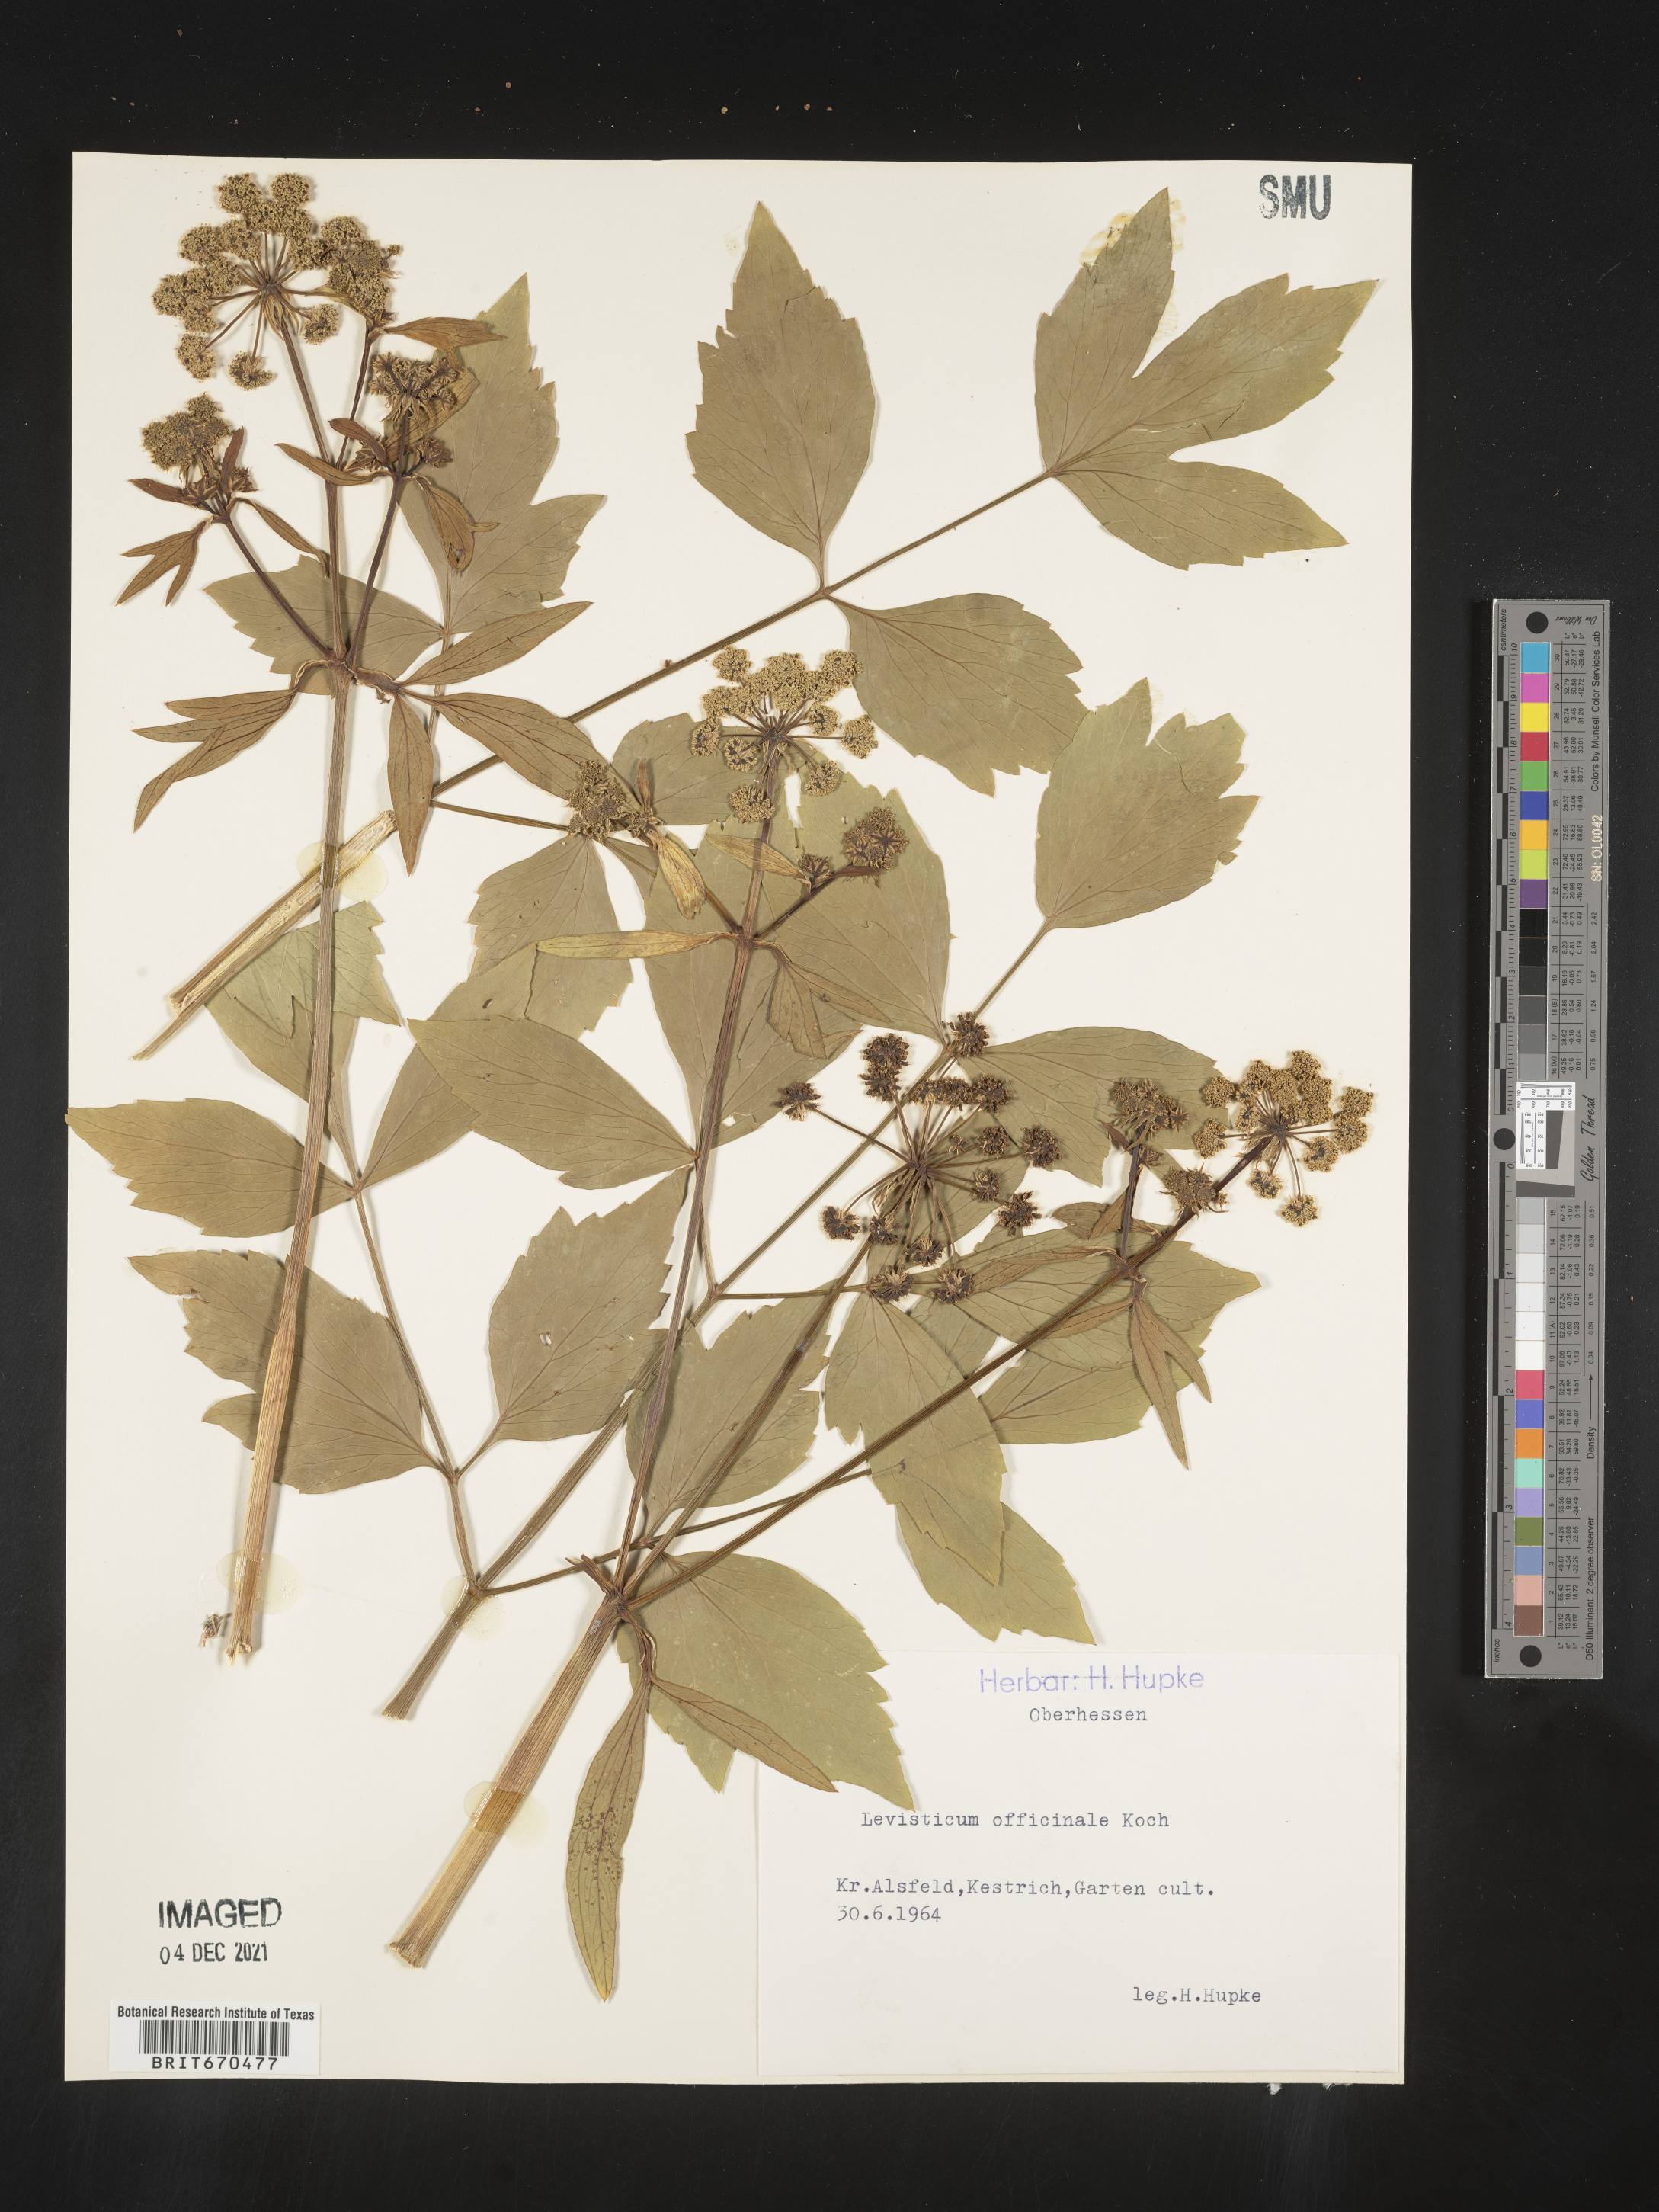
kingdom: Plantae
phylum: Tracheophyta
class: Magnoliopsida
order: Apiales
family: Apiaceae
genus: Levisticum
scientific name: Levisticum
